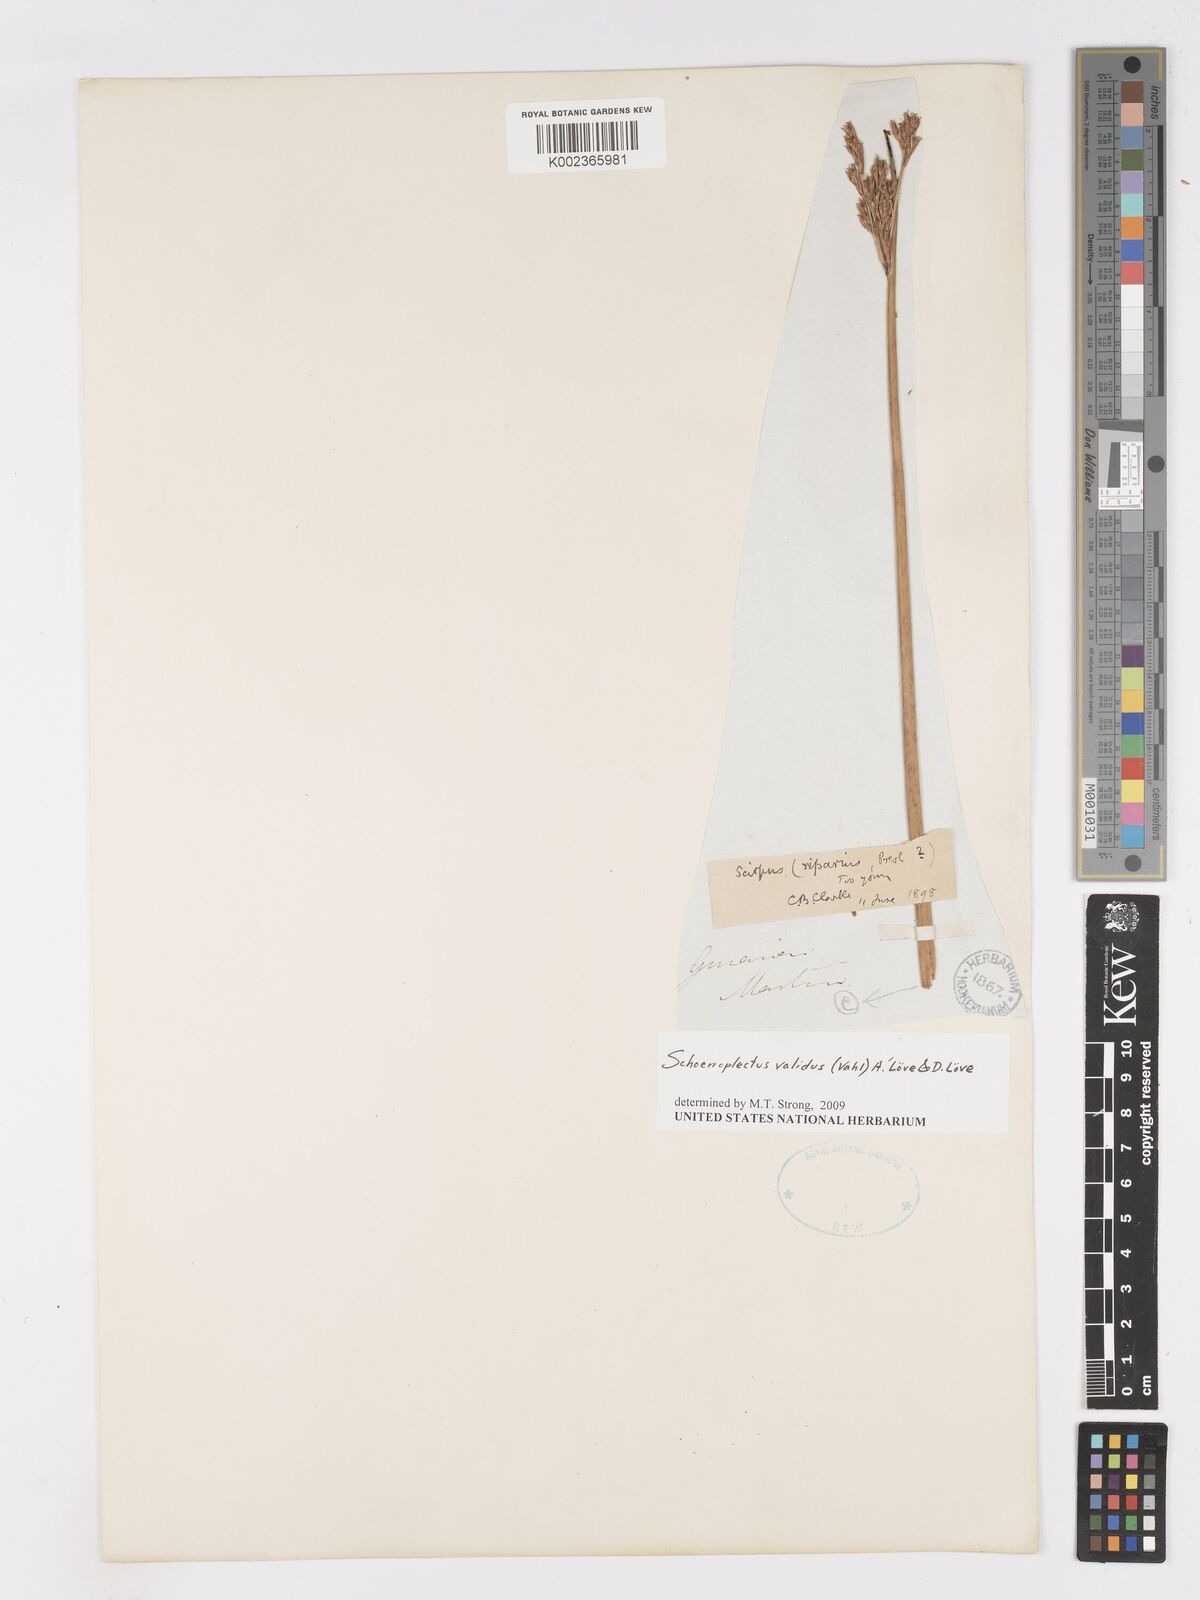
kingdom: Plantae
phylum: Tracheophyta
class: Liliopsida
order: Poales
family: Cyperaceae
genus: Schoenoplectus
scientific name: Schoenoplectus tabernaemontani
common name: Grey club-rush
